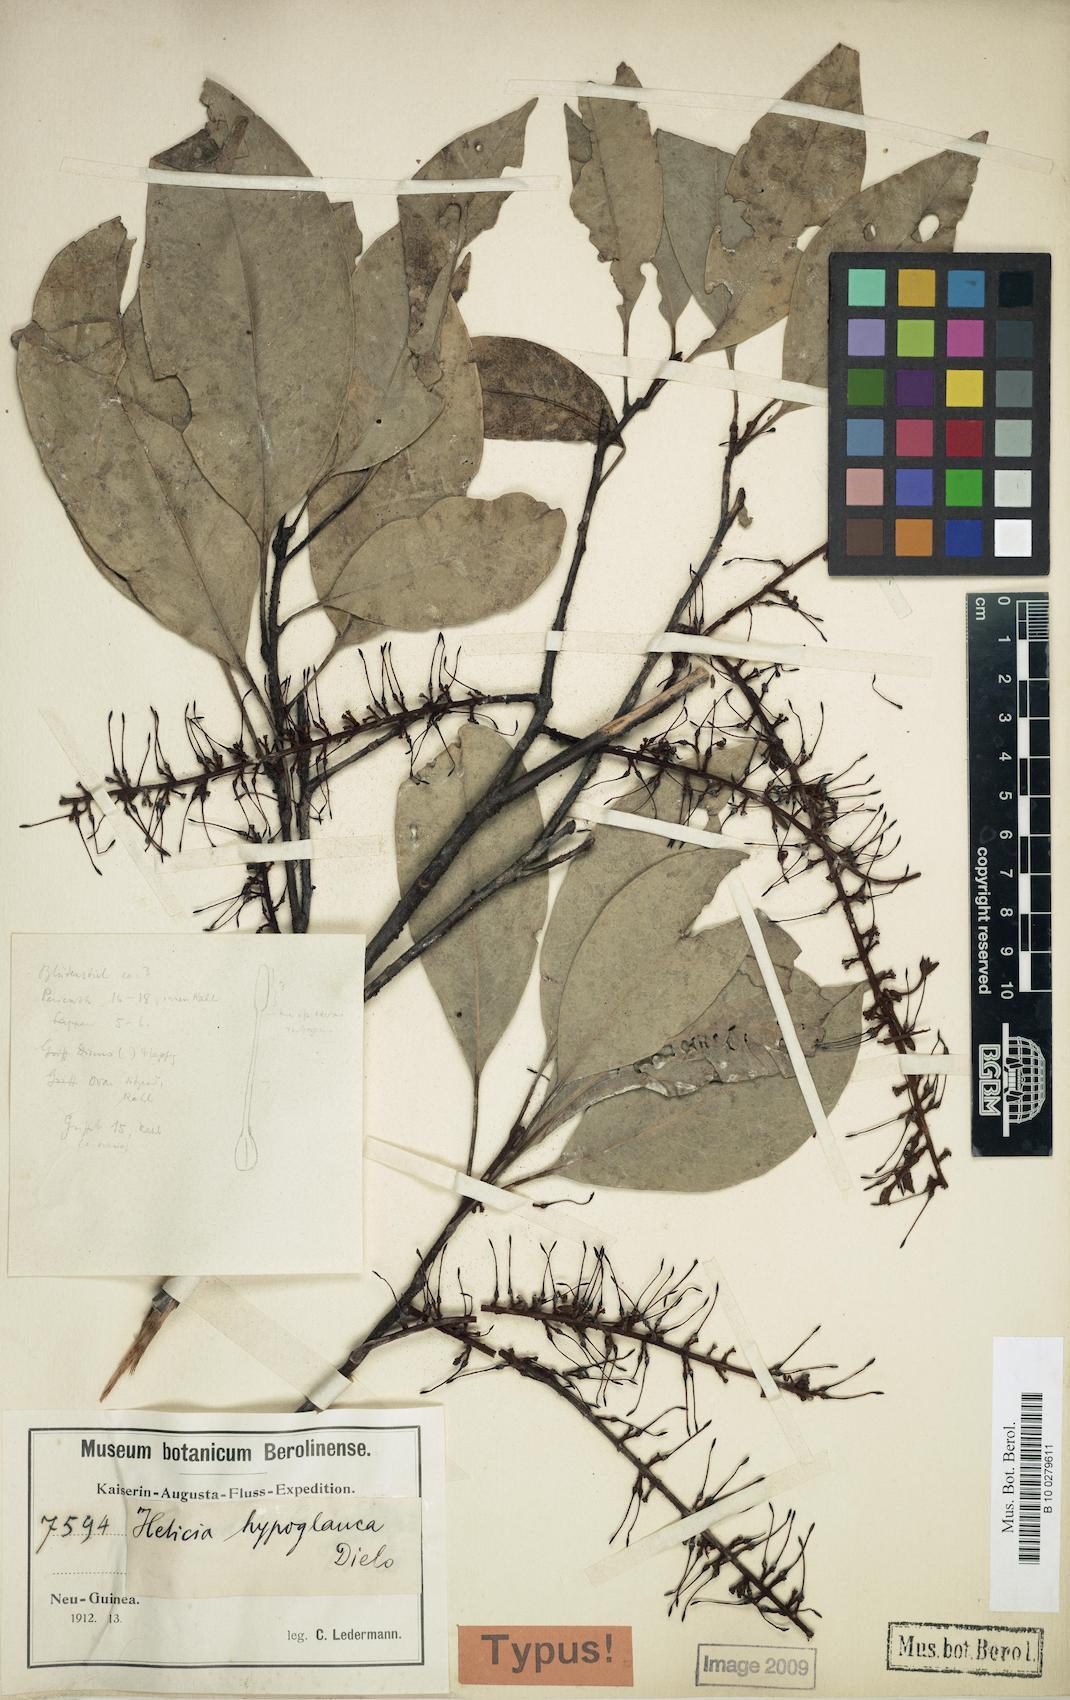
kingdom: Plantae
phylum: Tracheophyta
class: Magnoliopsida
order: Proteales
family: Proteaceae
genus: Helicia
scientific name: Helicia hypoglauca
